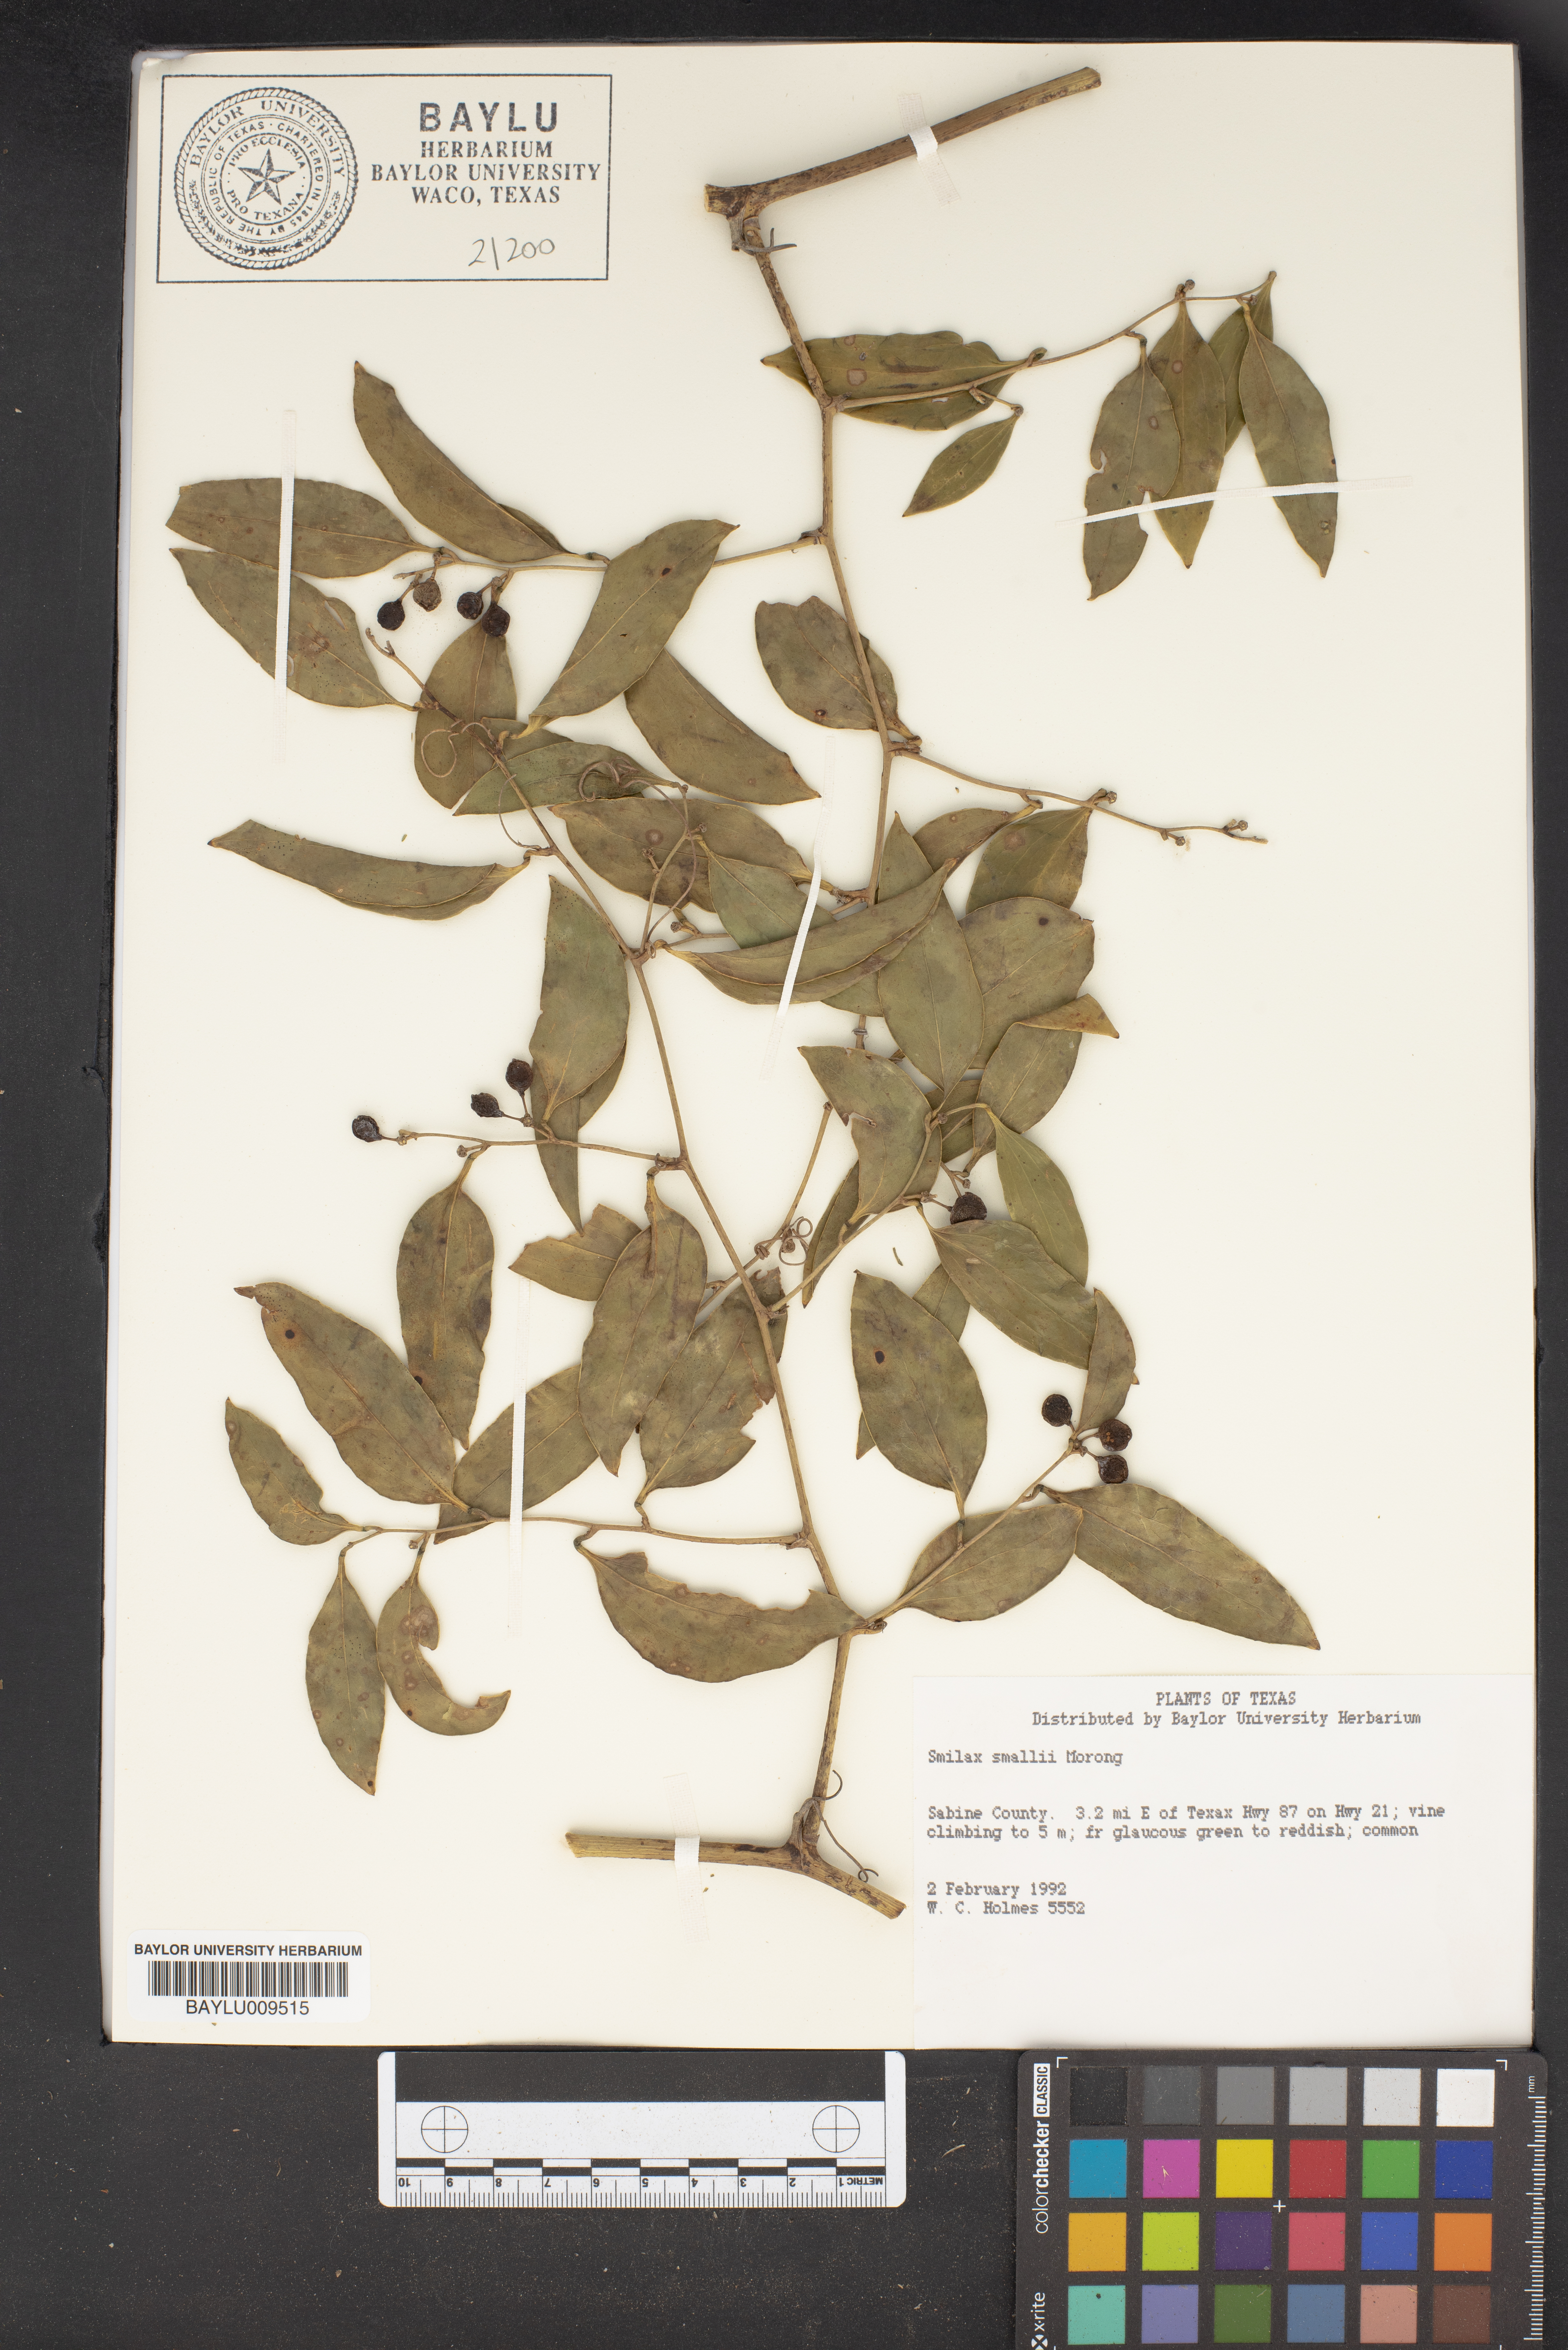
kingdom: Plantae
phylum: Tracheophyta
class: Liliopsida
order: Liliales
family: Smilacaceae
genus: Smilax
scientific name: Smilax maritima
